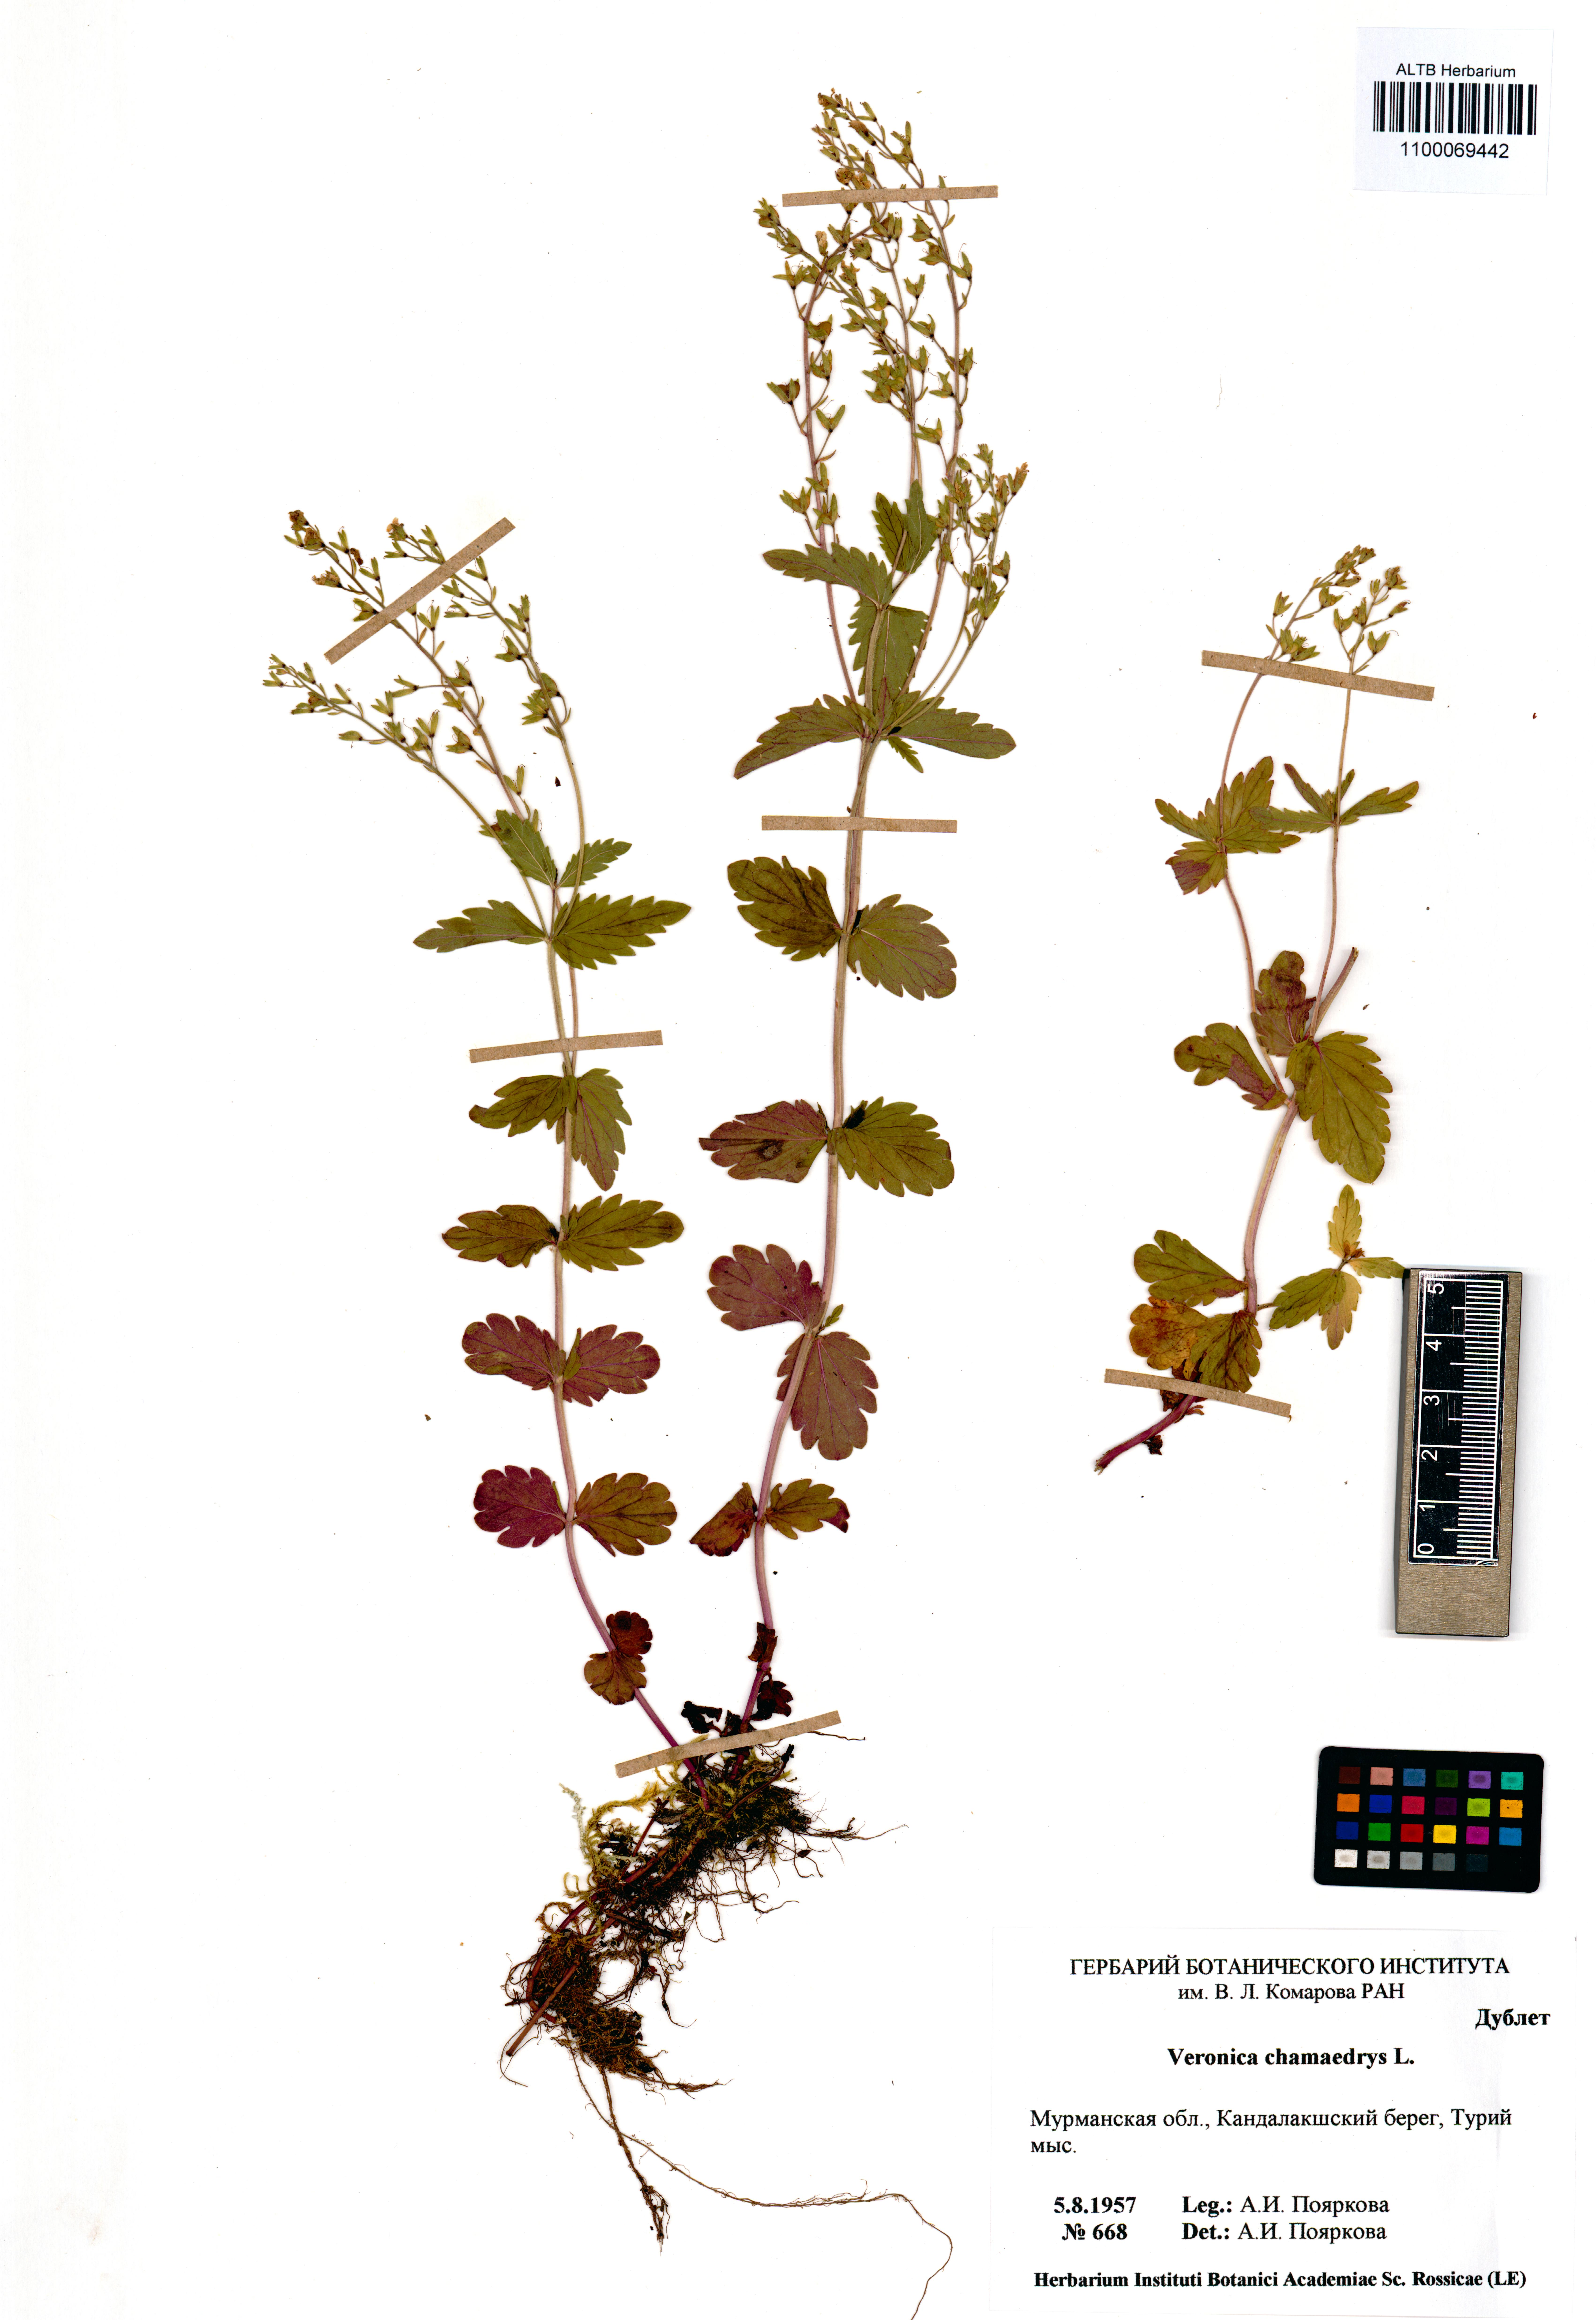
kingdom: Plantae
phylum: Tracheophyta
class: Magnoliopsida
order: Lamiales
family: Plantaginaceae
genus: Veronica
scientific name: Veronica chamaedrys
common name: Germander speedwell
